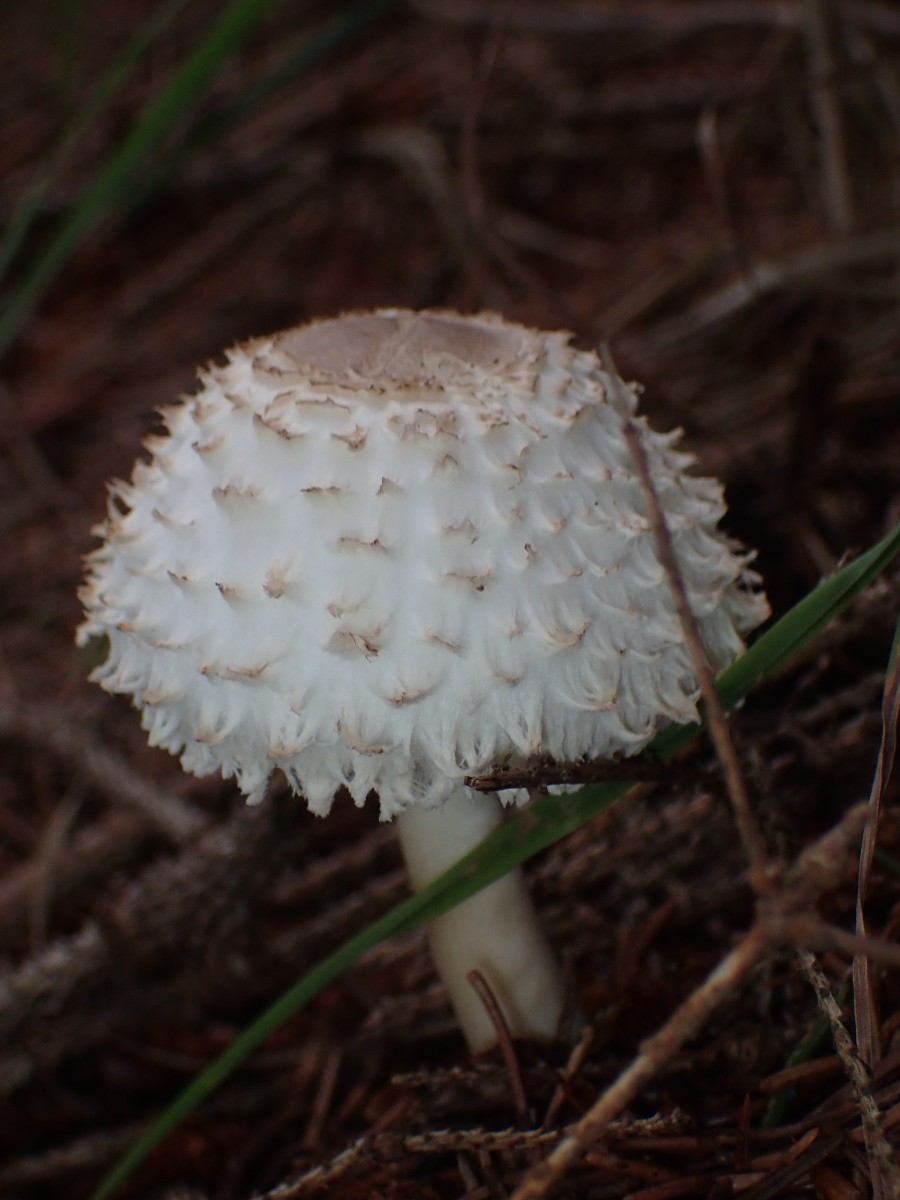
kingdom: Fungi
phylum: Basidiomycota
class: Agaricomycetes
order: Agaricales
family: Agaricaceae
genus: Leucoagaricus
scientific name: Leucoagaricus nympharum
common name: gran-silkehat
